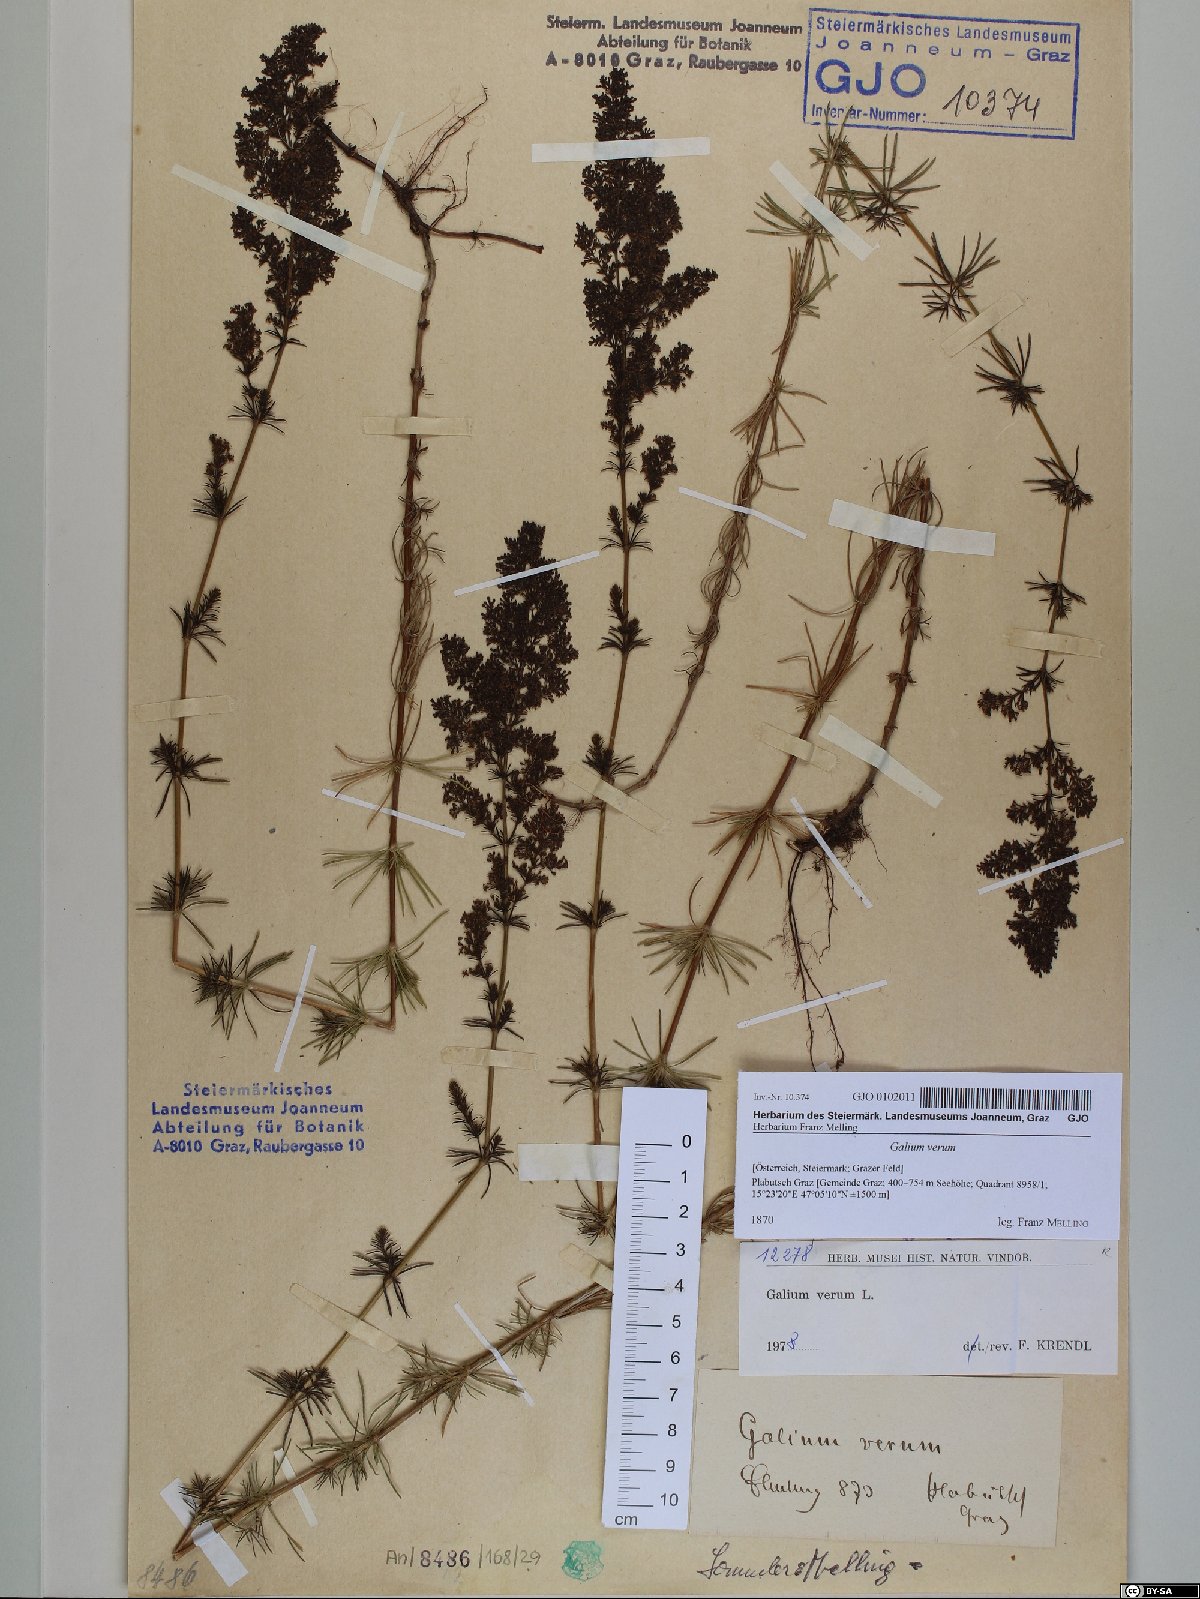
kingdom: Plantae
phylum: Tracheophyta
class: Magnoliopsida
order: Gentianales
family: Rubiaceae
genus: Galium
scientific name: Galium verum
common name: Lady's bedstraw
